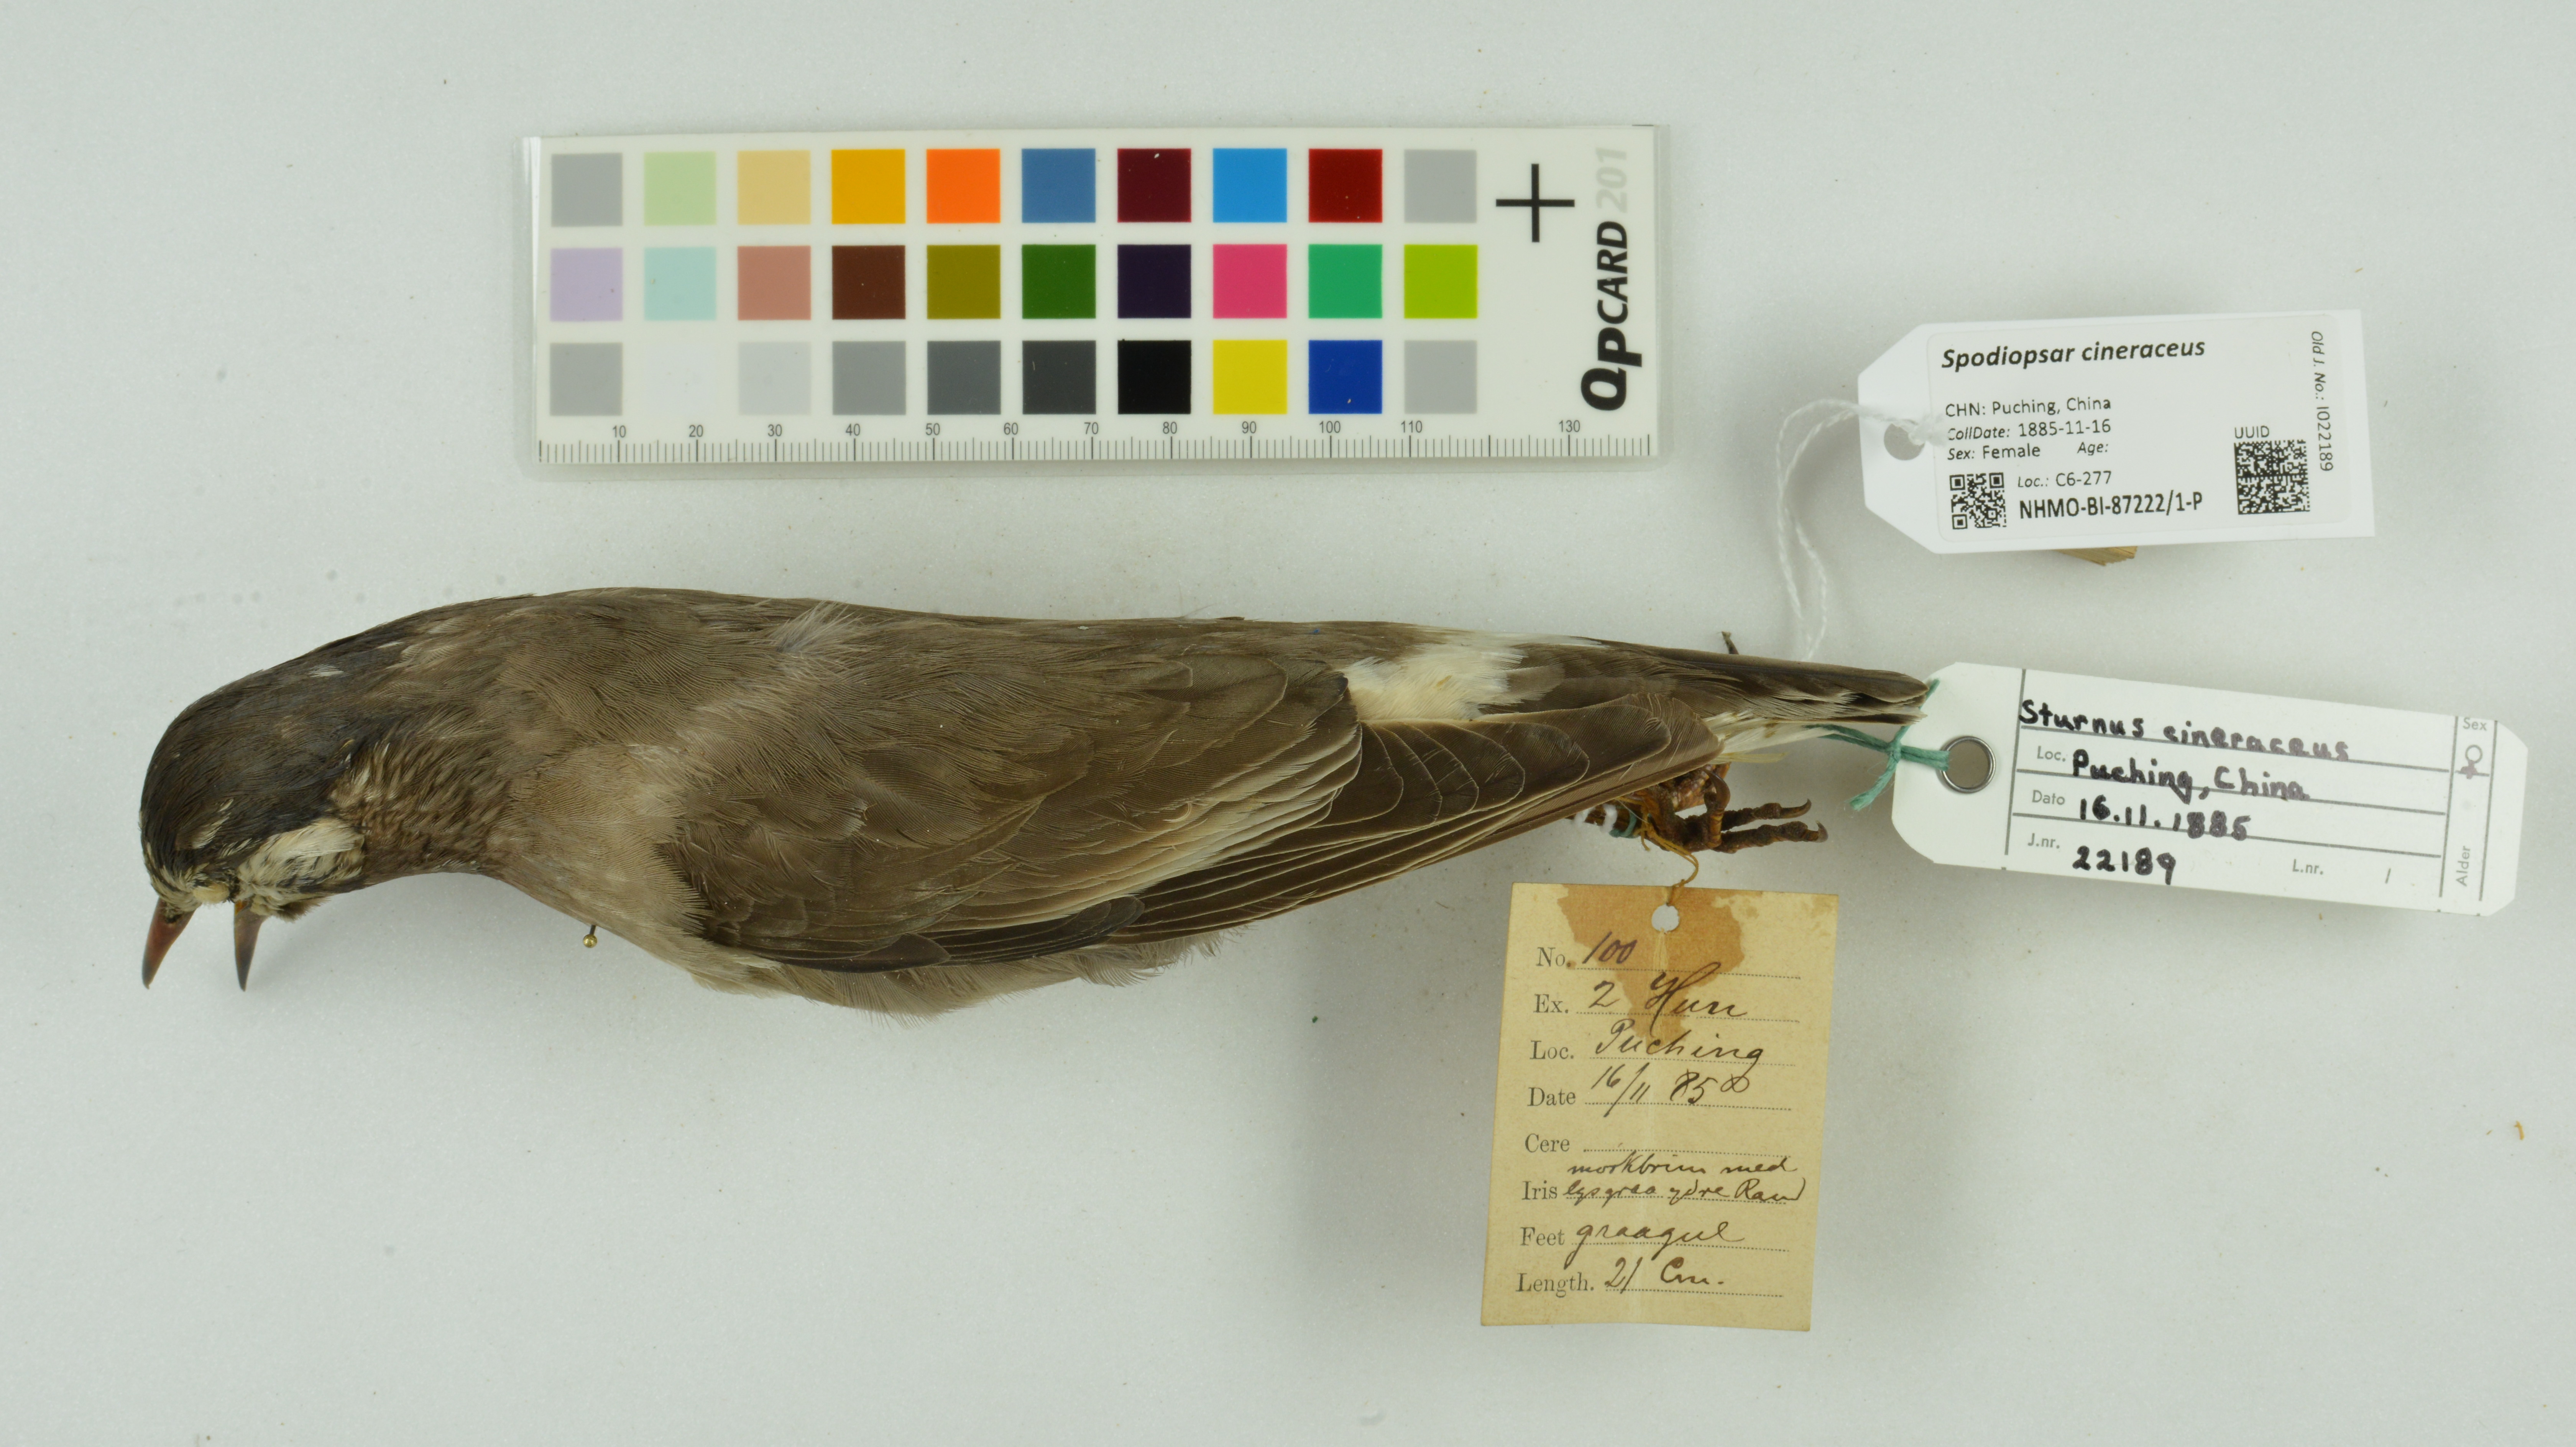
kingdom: Animalia
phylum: Chordata
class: Aves
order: Passeriformes
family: Sturnidae
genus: Spodiopsar
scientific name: Spodiopsar cineraceus
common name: White-cheeked starling
